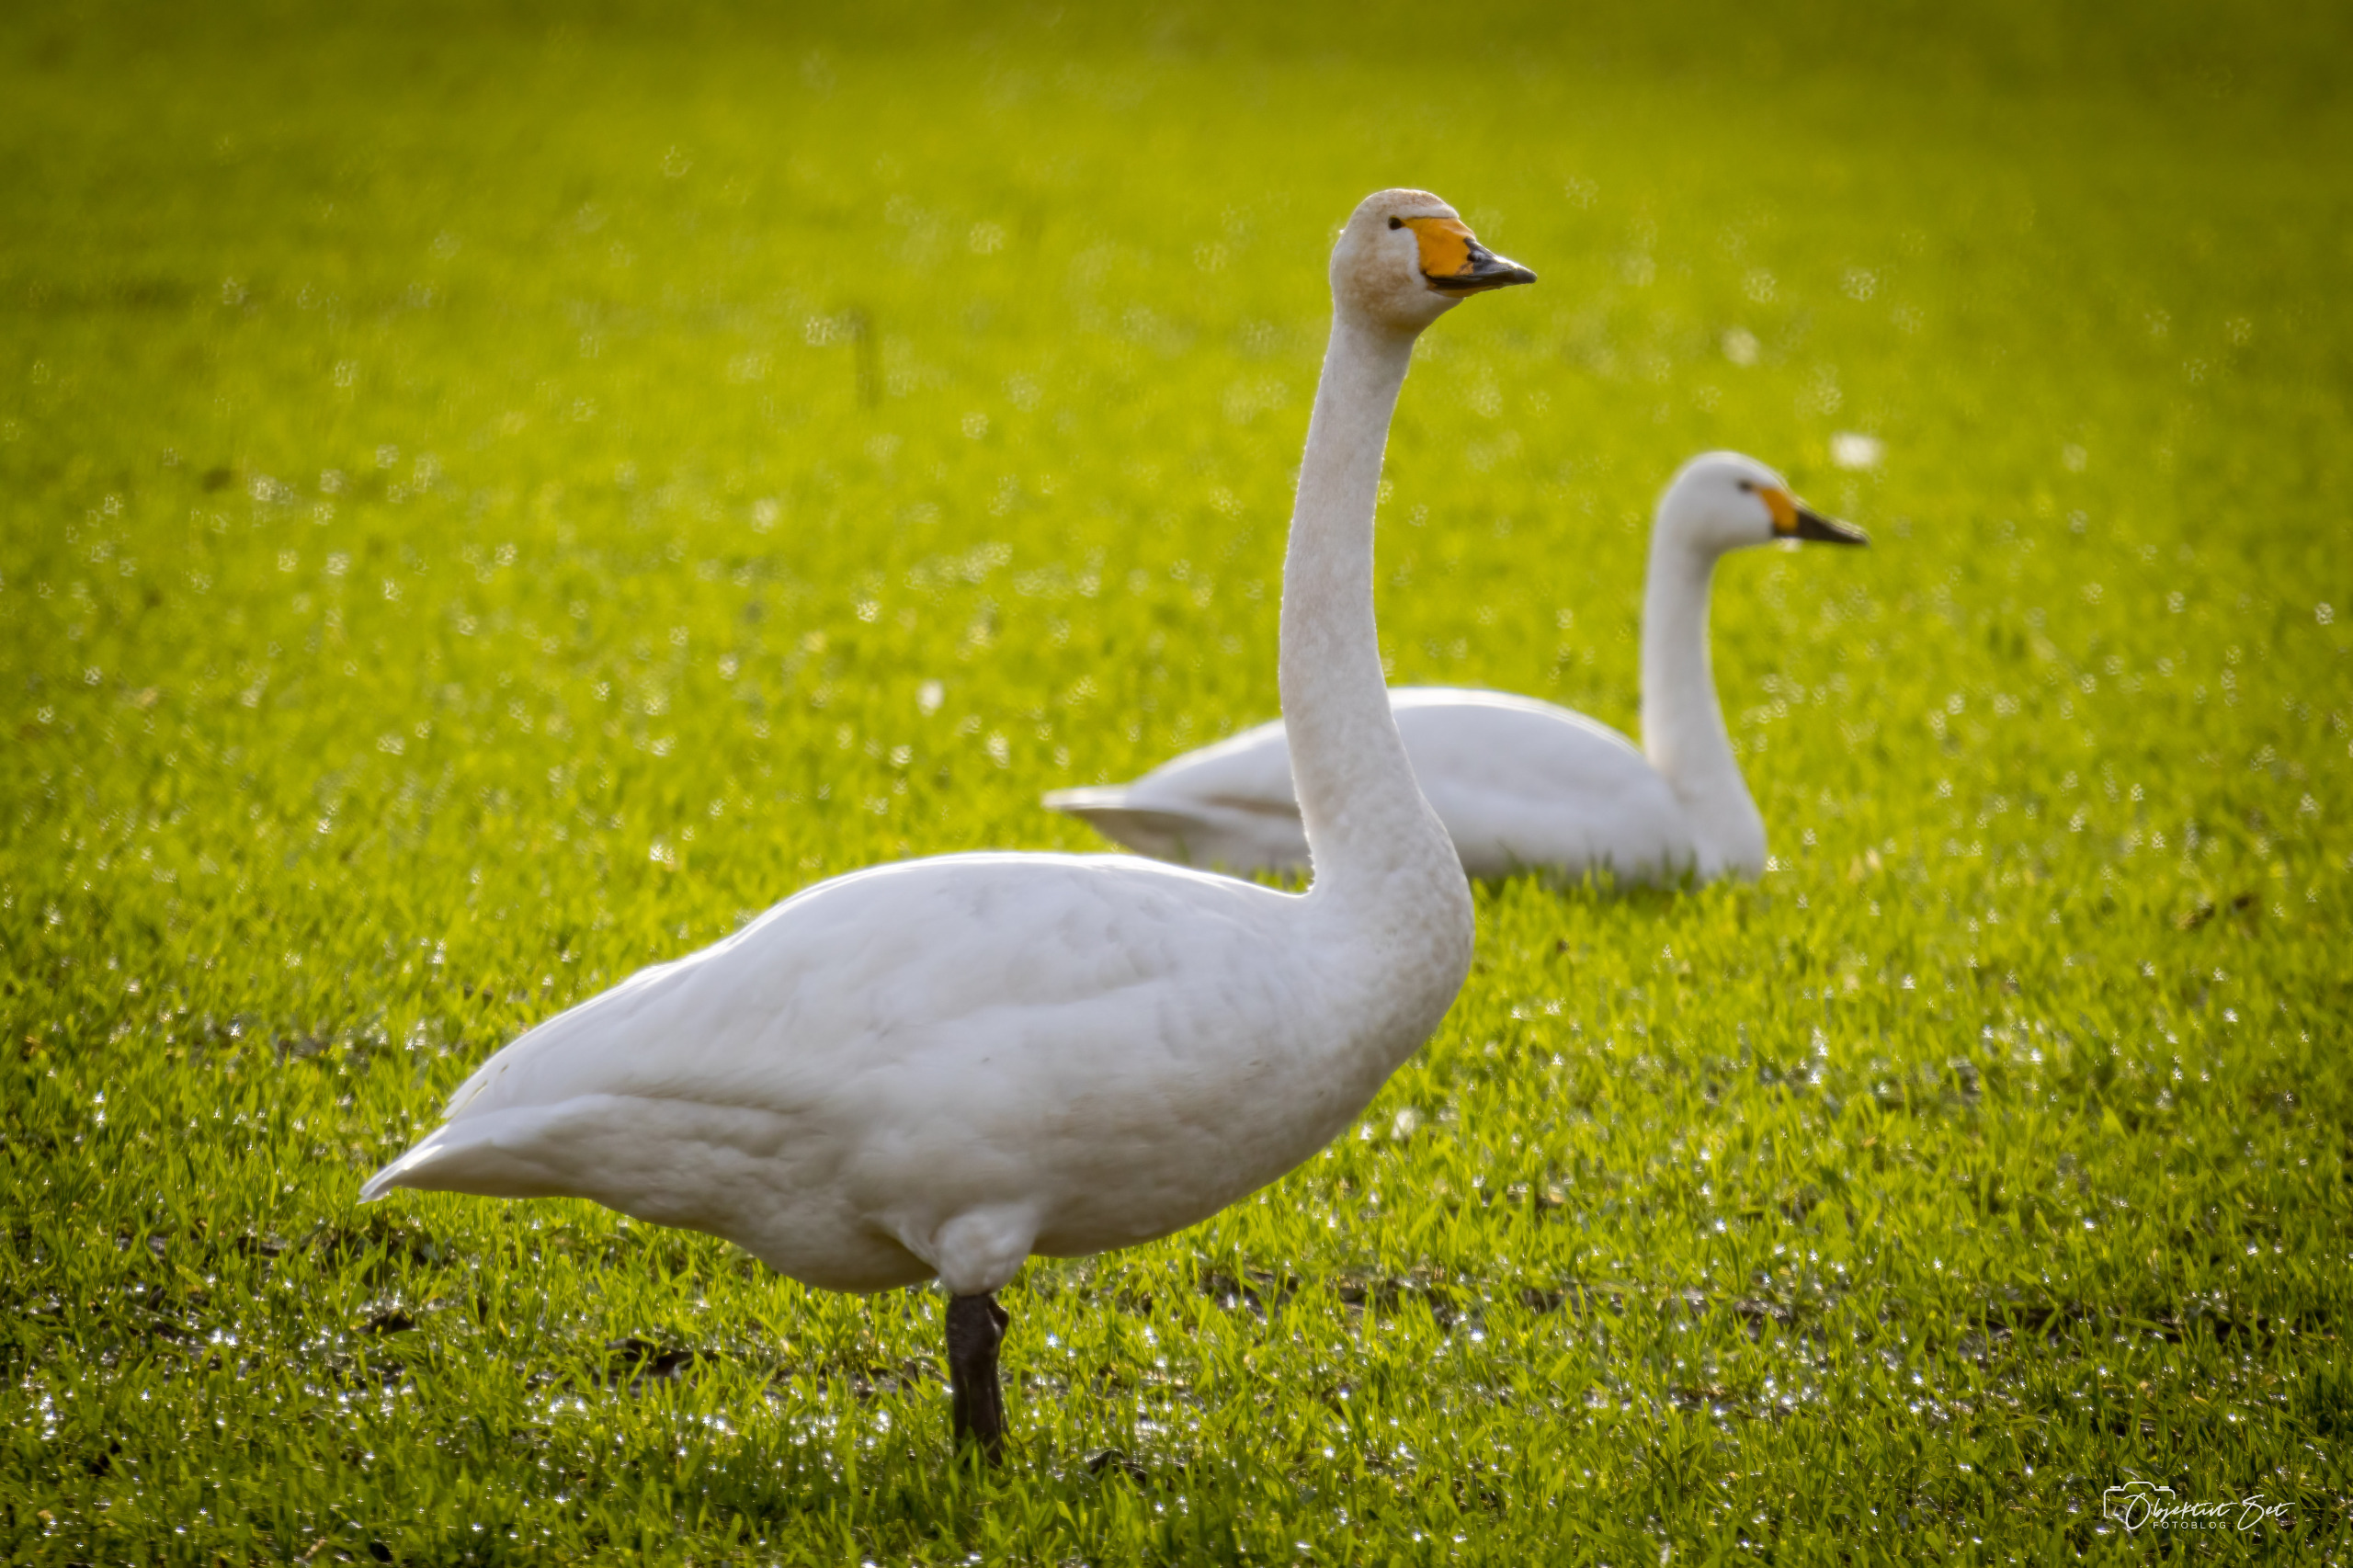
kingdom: Animalia
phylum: Chordata
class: Aves
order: Anseriformes
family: Anatidae
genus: Cygnus
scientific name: Cygnus cygnus
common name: Sangsvane
